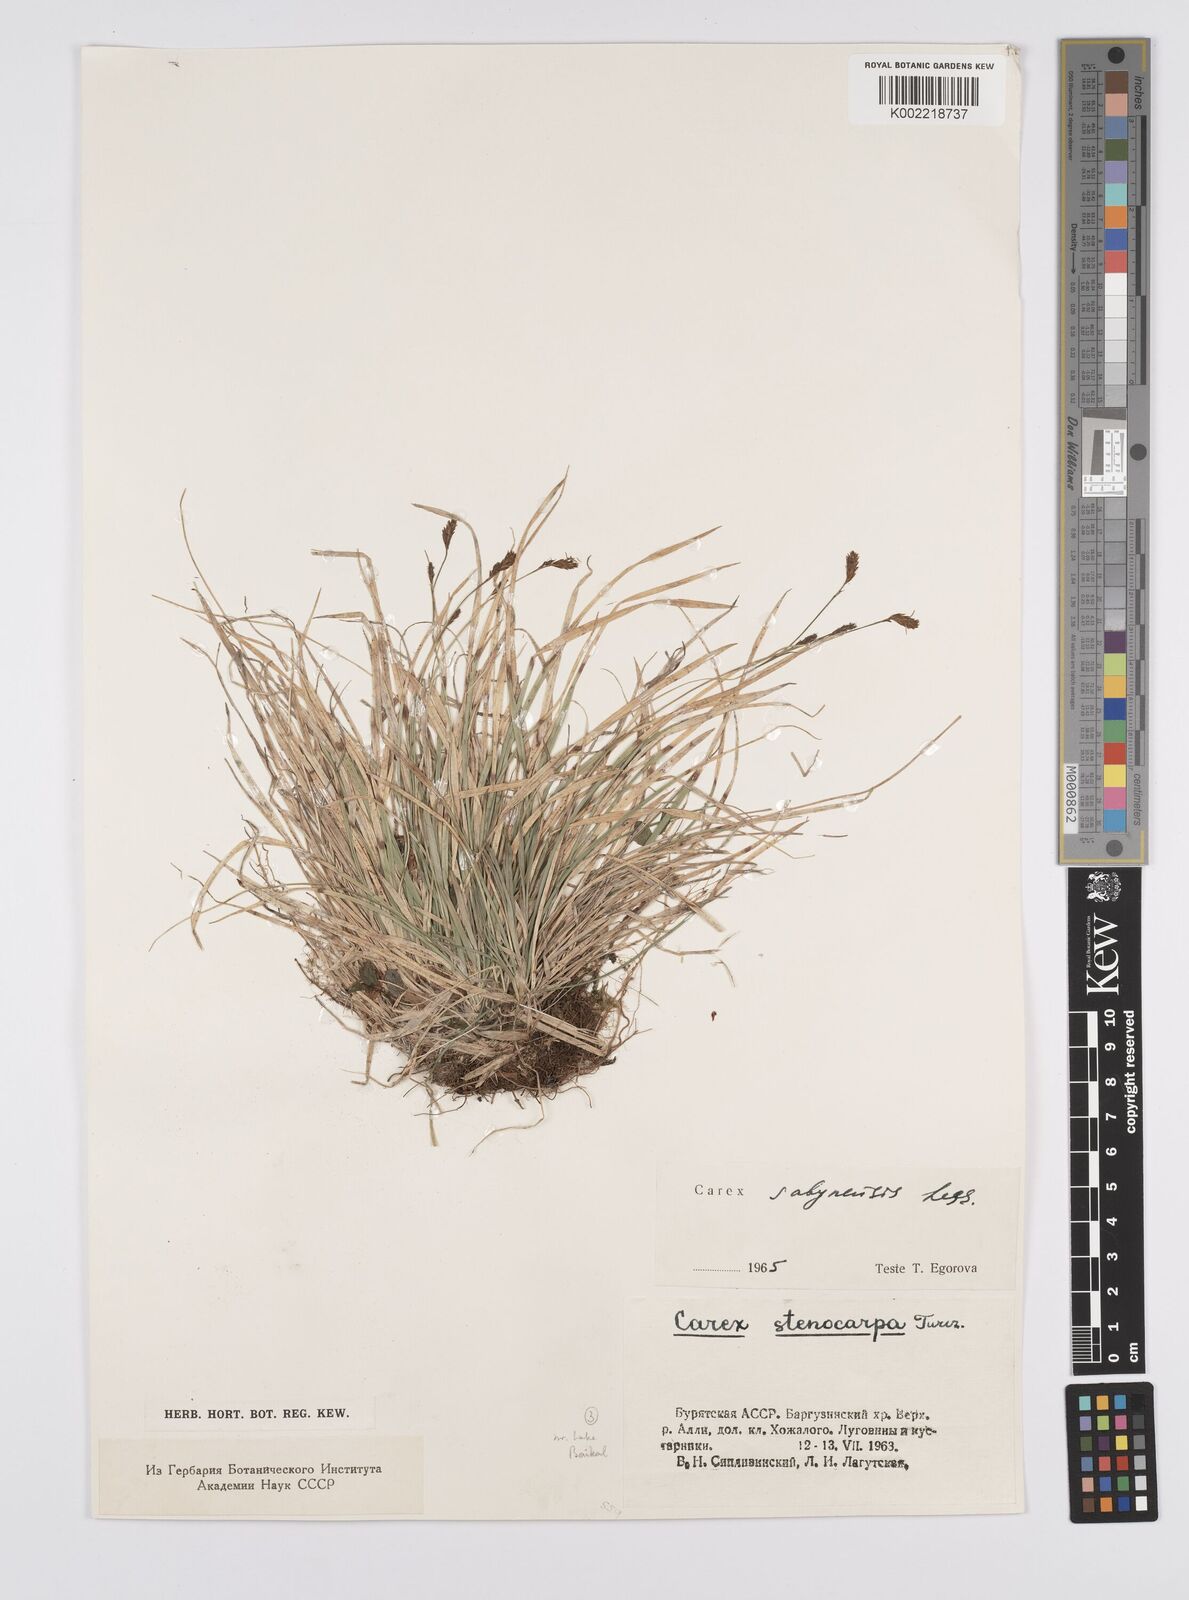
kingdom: Plantae
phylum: Tracheophyta
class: Liliopsida
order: Poales
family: Cyperaceae
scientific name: Cyperaceae
